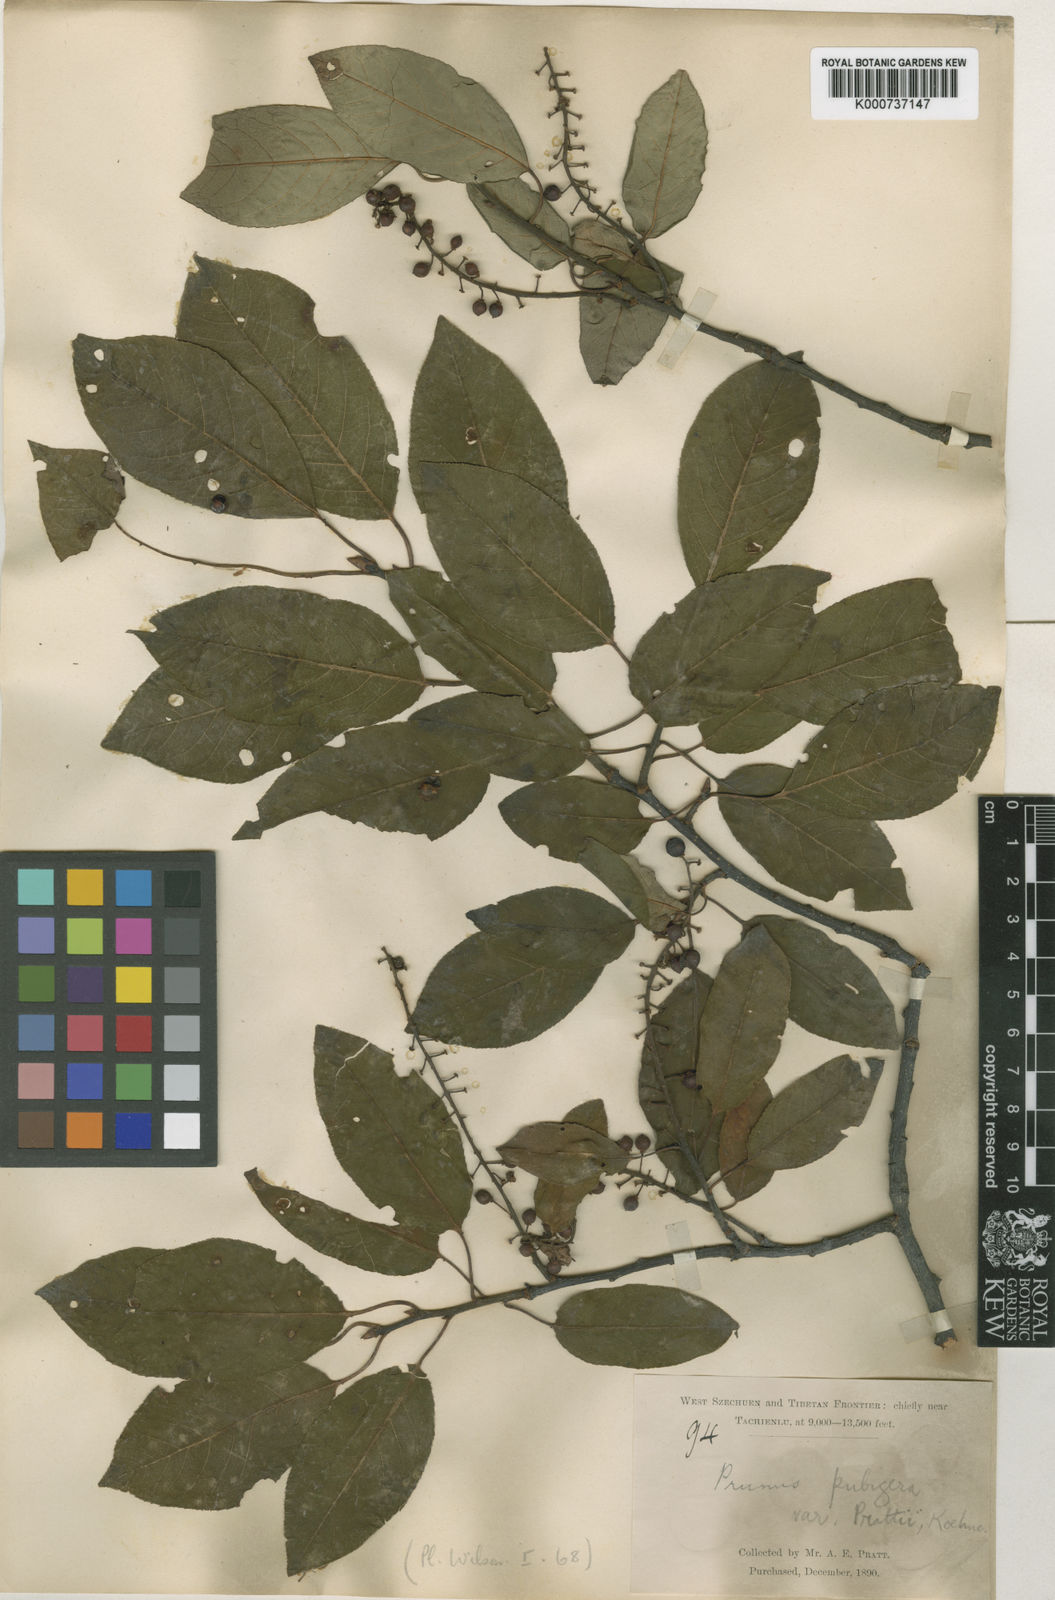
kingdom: Plantae
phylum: Tracheophyta
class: Magnoliopsida
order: Rosales
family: Rosaceae
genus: Prunus
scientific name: Prunus obtusata
